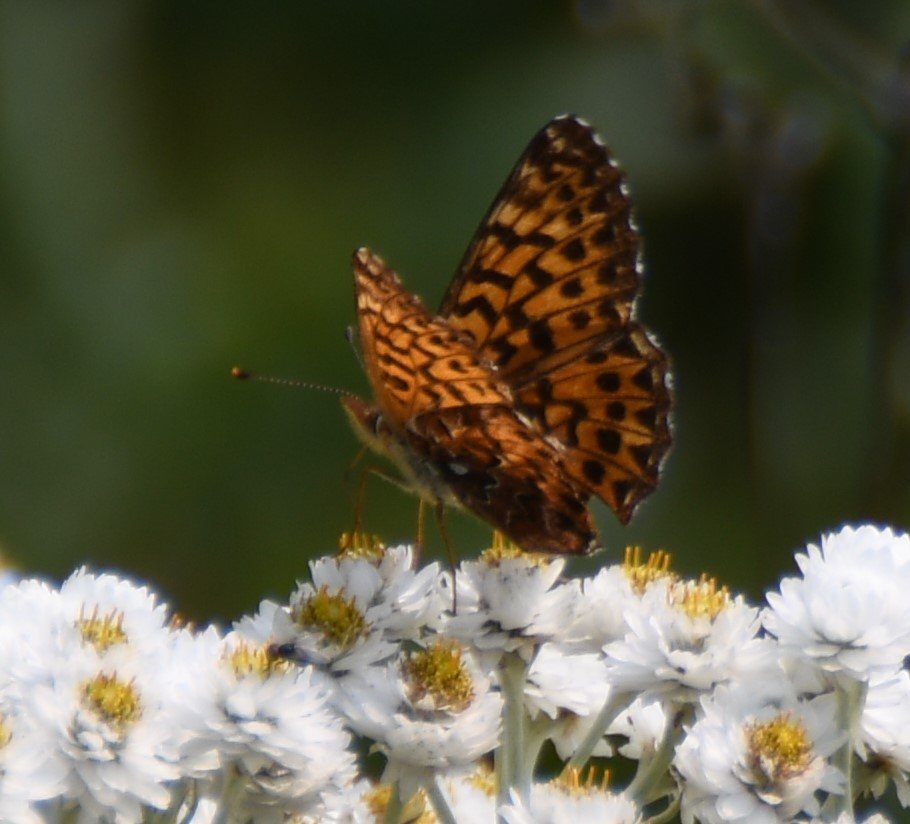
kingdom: Animalia
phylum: Arthropoda
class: Insecta
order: Lepidoptera
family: Nymphalidae
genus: Boloria
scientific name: Boloria chariclea
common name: Arctic Fritillary
